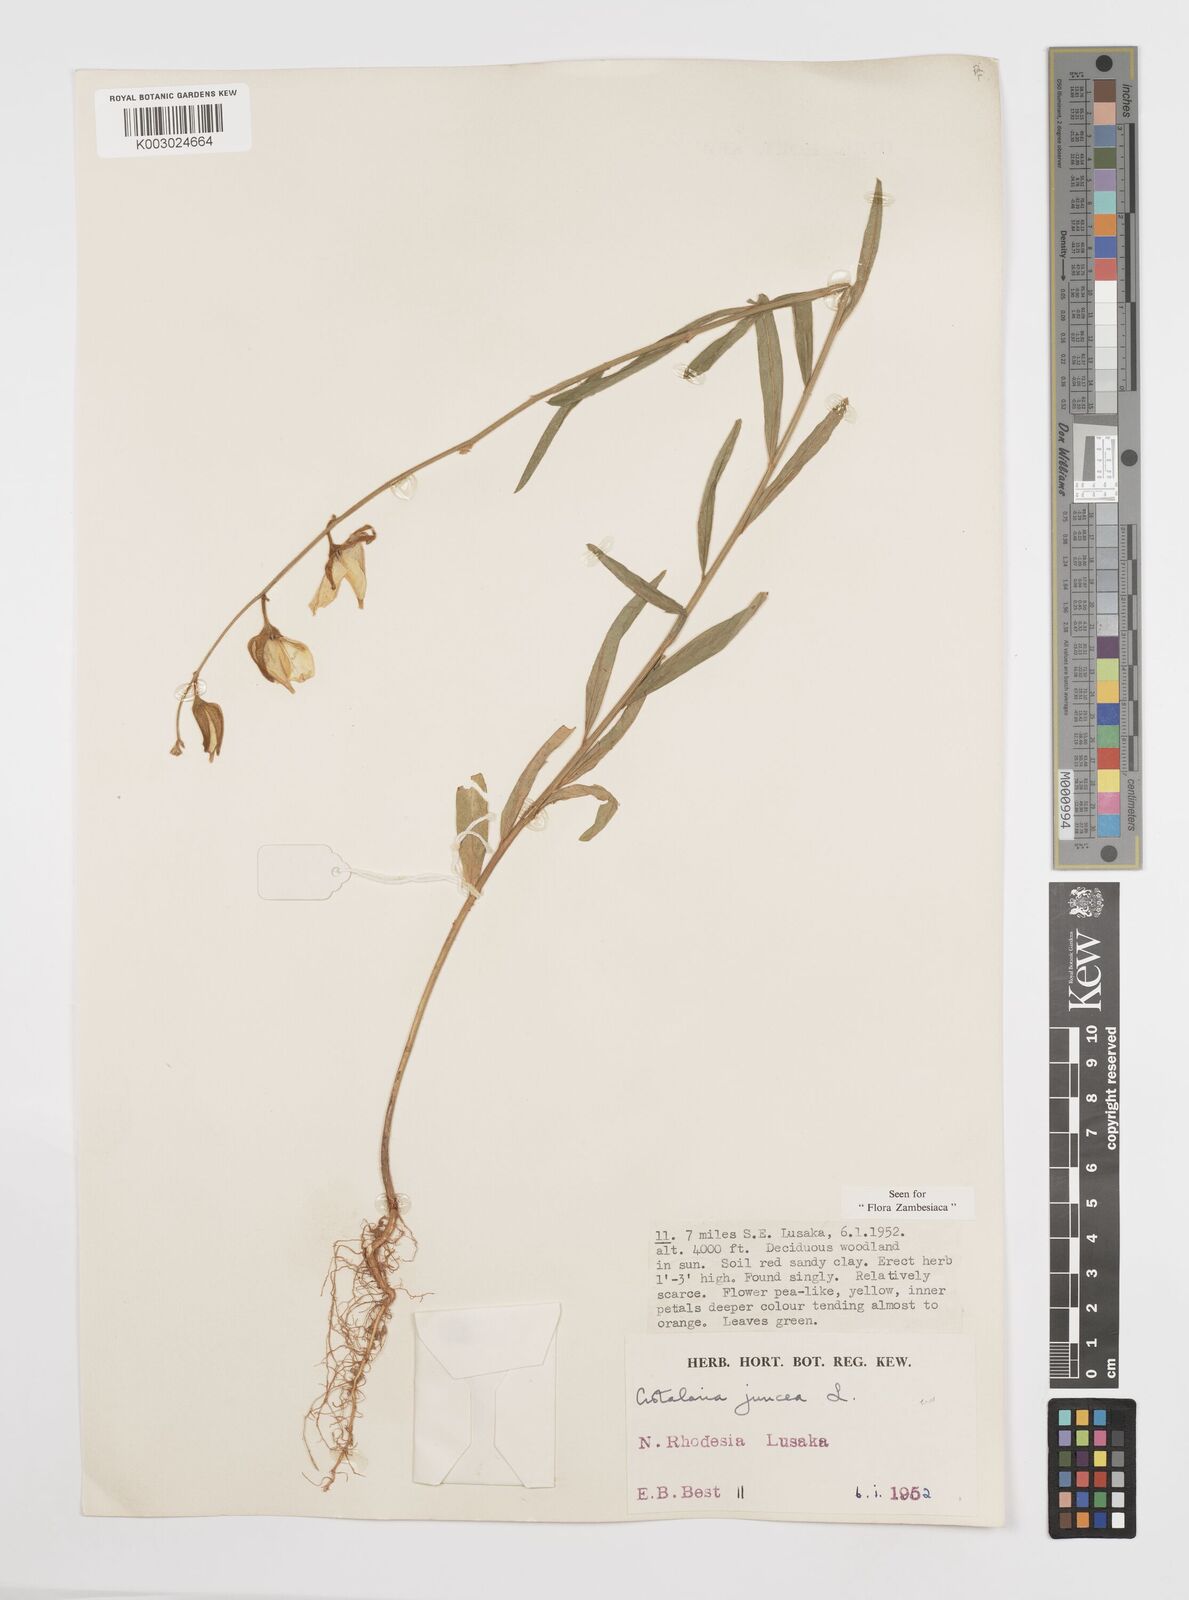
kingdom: Plantae
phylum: Tracheophyta
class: Magnoliopsida
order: Fabales
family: Fabaceae
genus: Crotalaria
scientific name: Crotalaria juncea
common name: Sunn hemp
